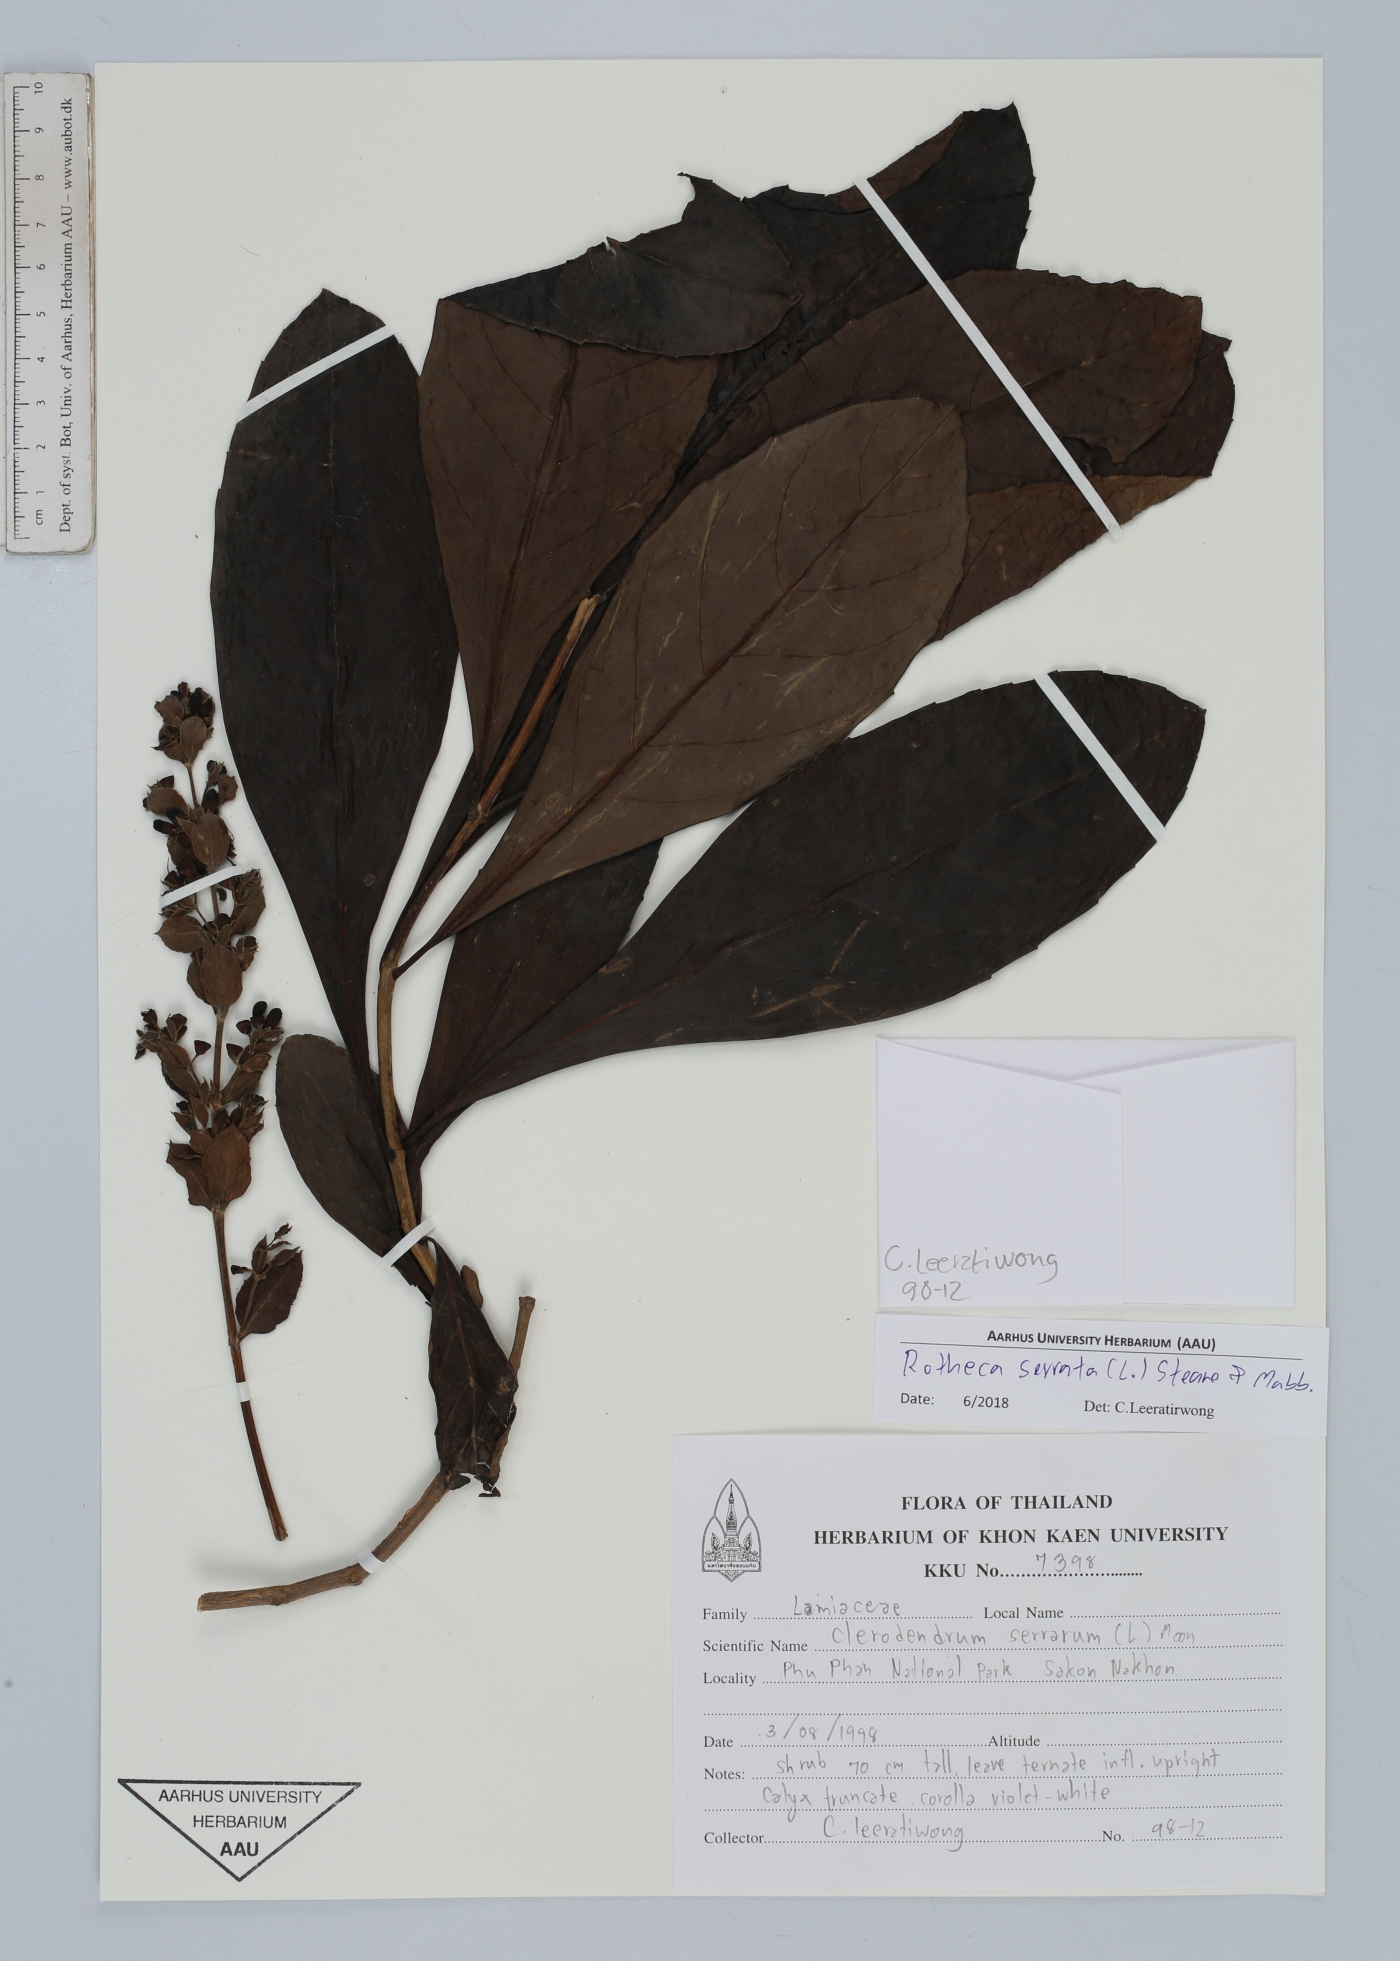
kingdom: Plantae
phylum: Tracheophyta
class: Magnoliopsida
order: Lamiales
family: Lamiaceae
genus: Rotheca
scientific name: Rotheca serrata
